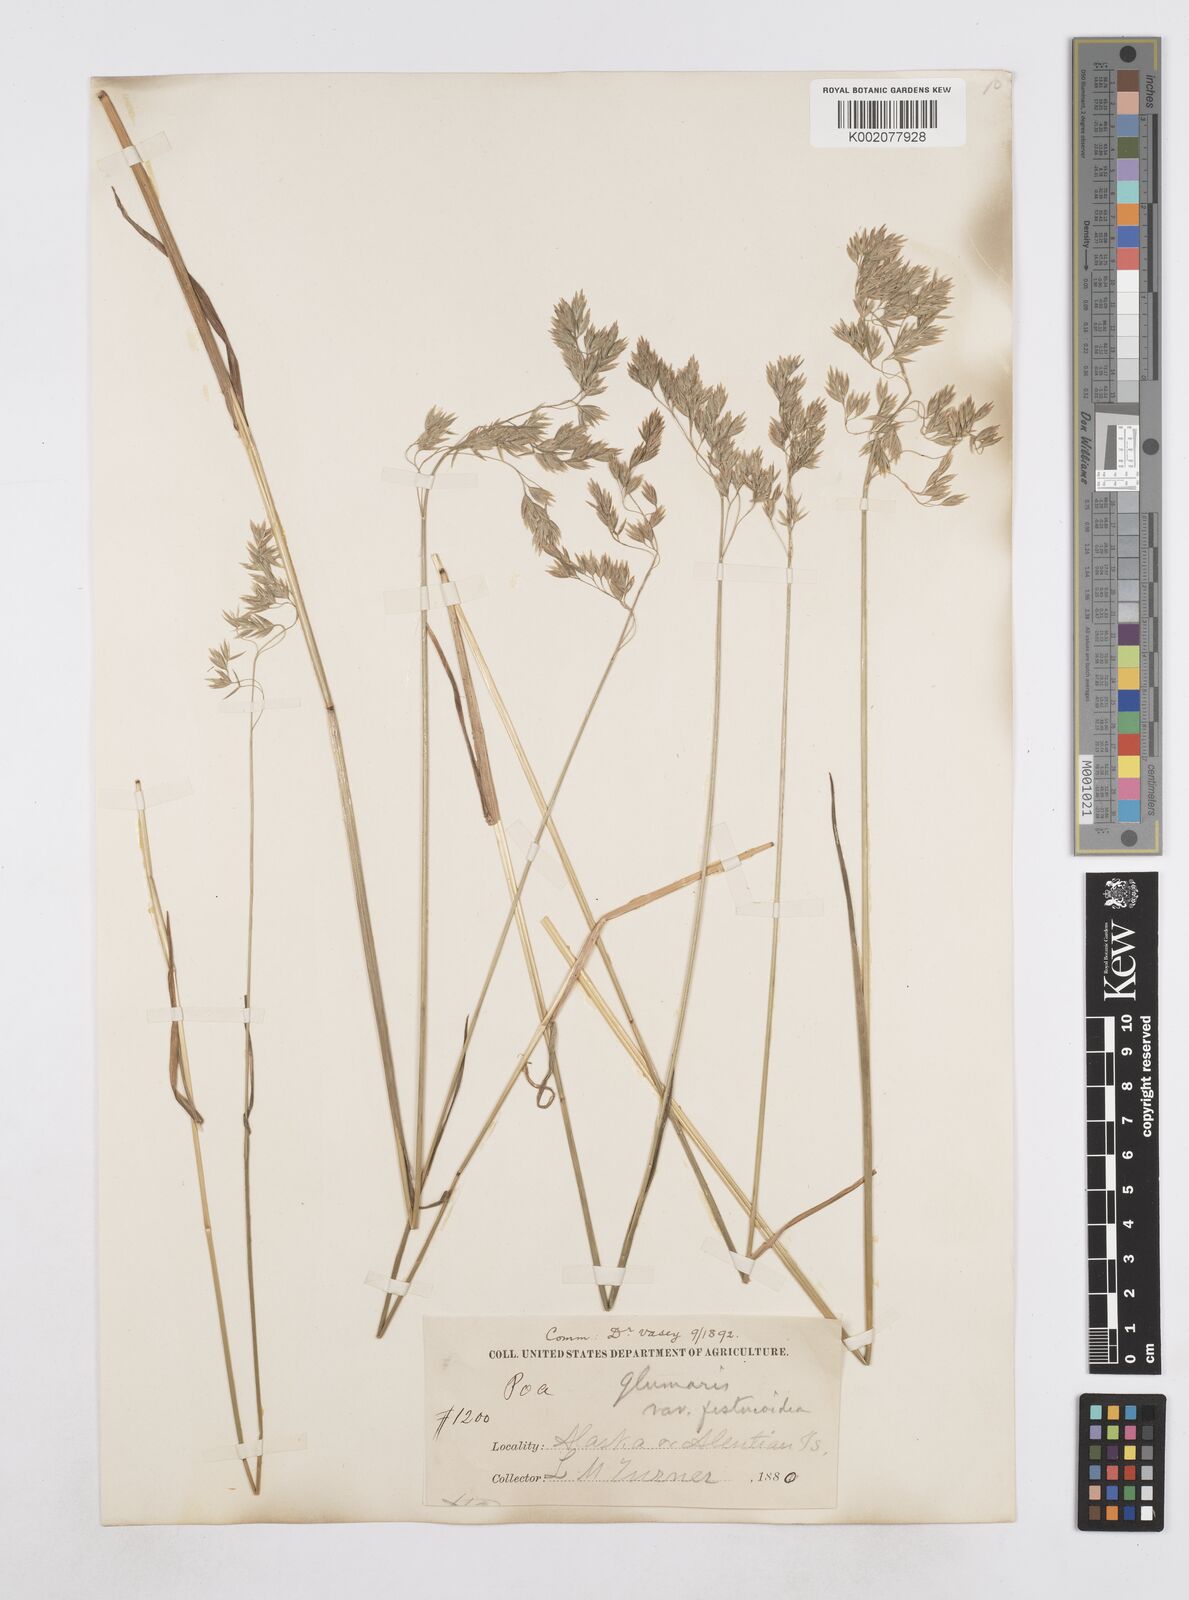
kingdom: Plantae
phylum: Tracheophyta
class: Liliopsida
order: Poales
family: Poaceae
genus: Arctopoa
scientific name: Arctopoa eminens
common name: Eminent bluegrass
